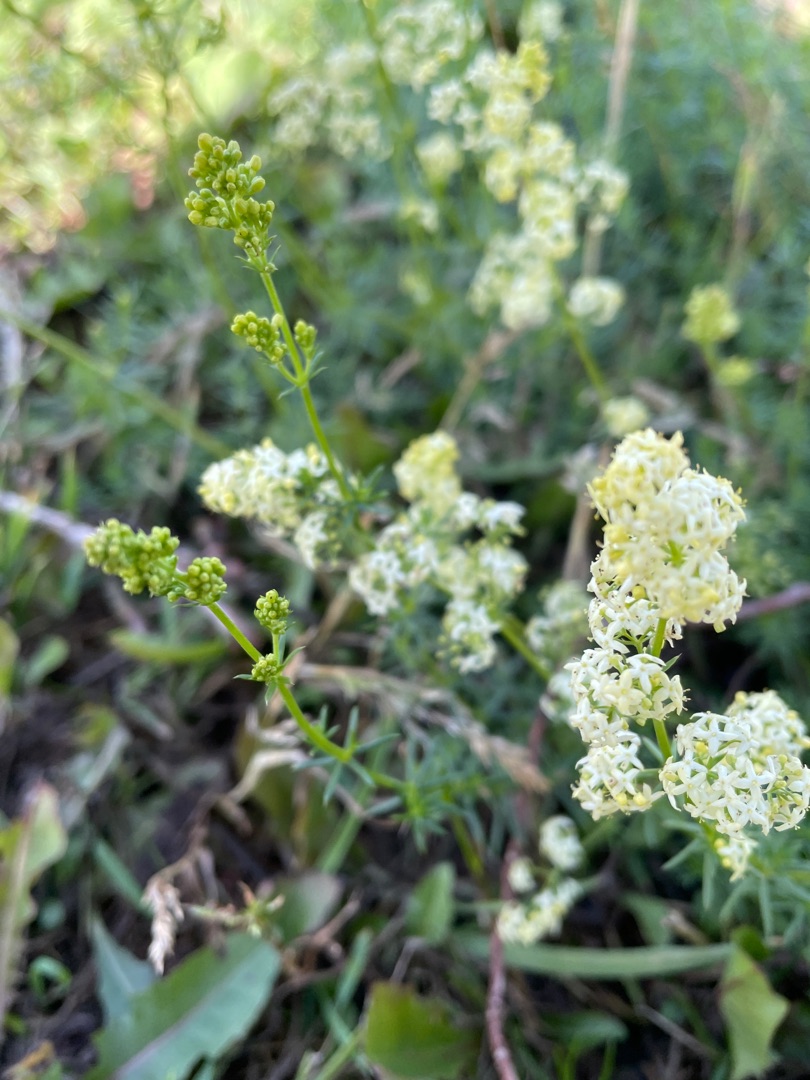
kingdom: Plantae
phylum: Tracheophyta
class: Magnoliopsida
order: Gentianales
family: Rubiaceae
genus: Galium
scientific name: Galium mollugo
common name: Hvid snerre
